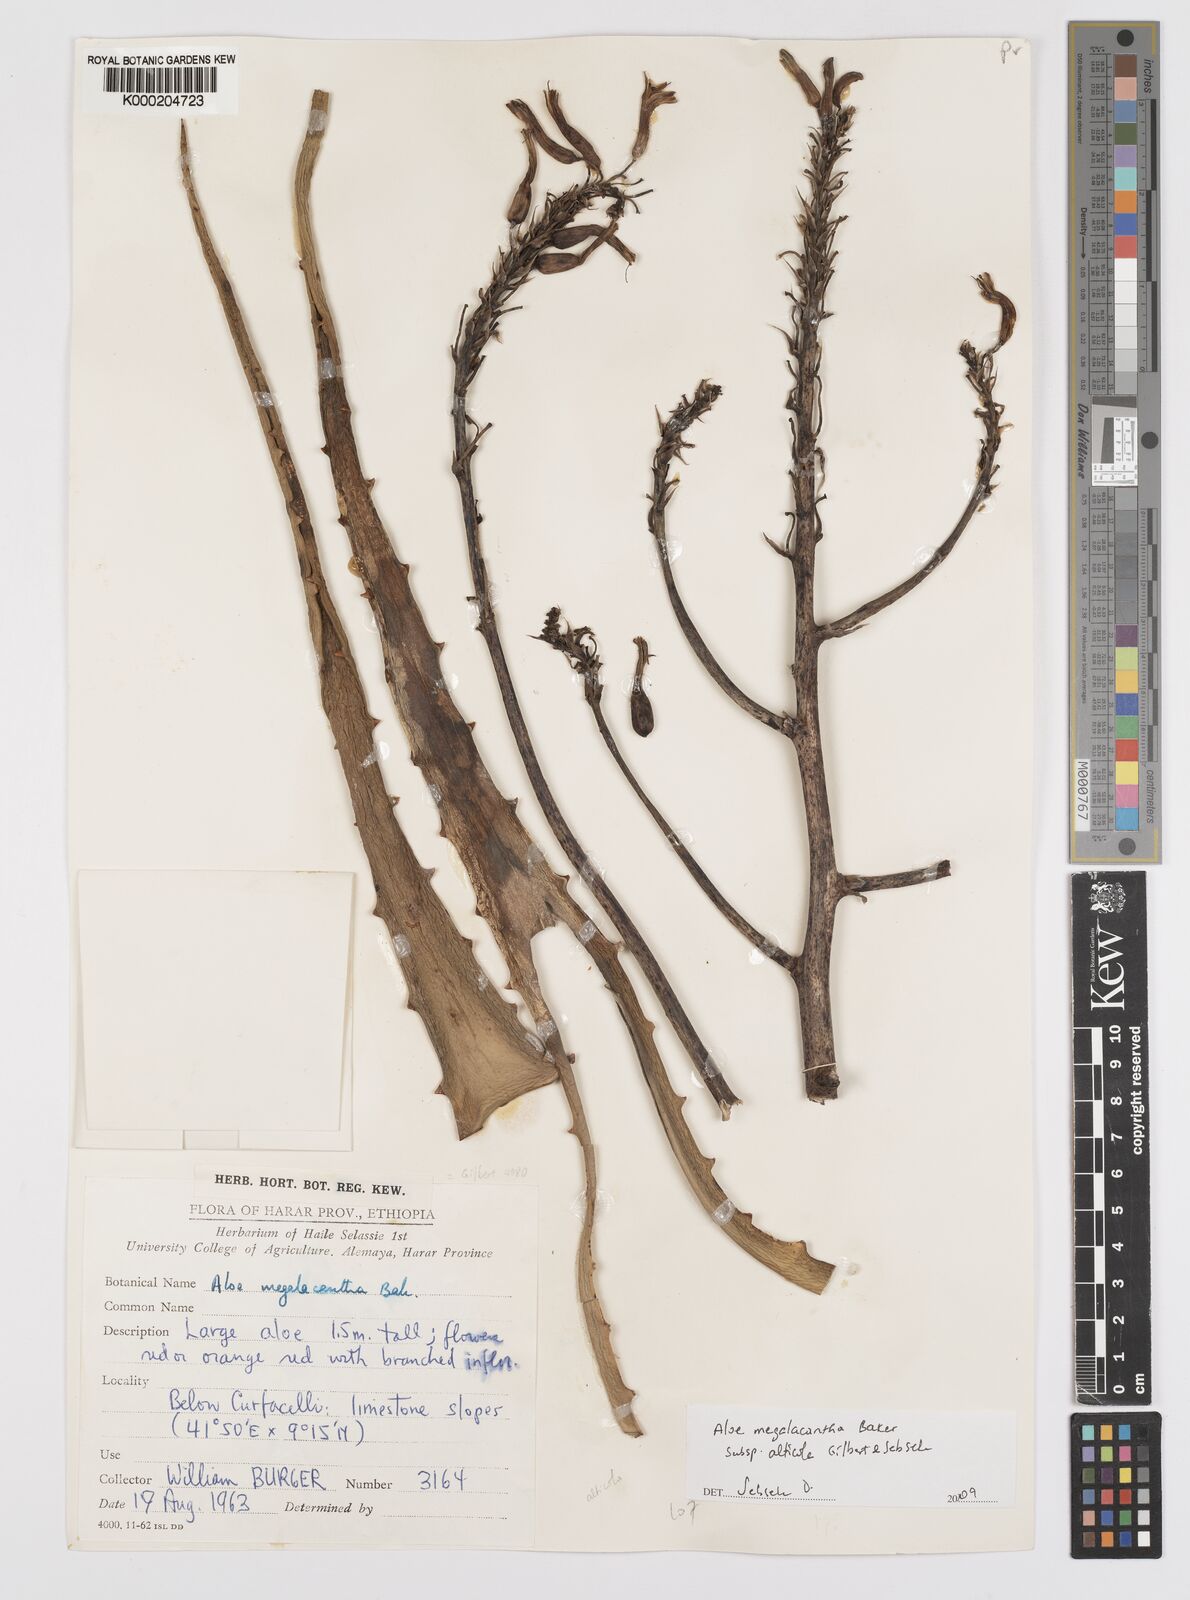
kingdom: Plantae
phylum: Tracheophyta
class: Liliopsida
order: Asparagales
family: Asphodelaceae
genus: Aloe
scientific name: Aloe megalacantha
